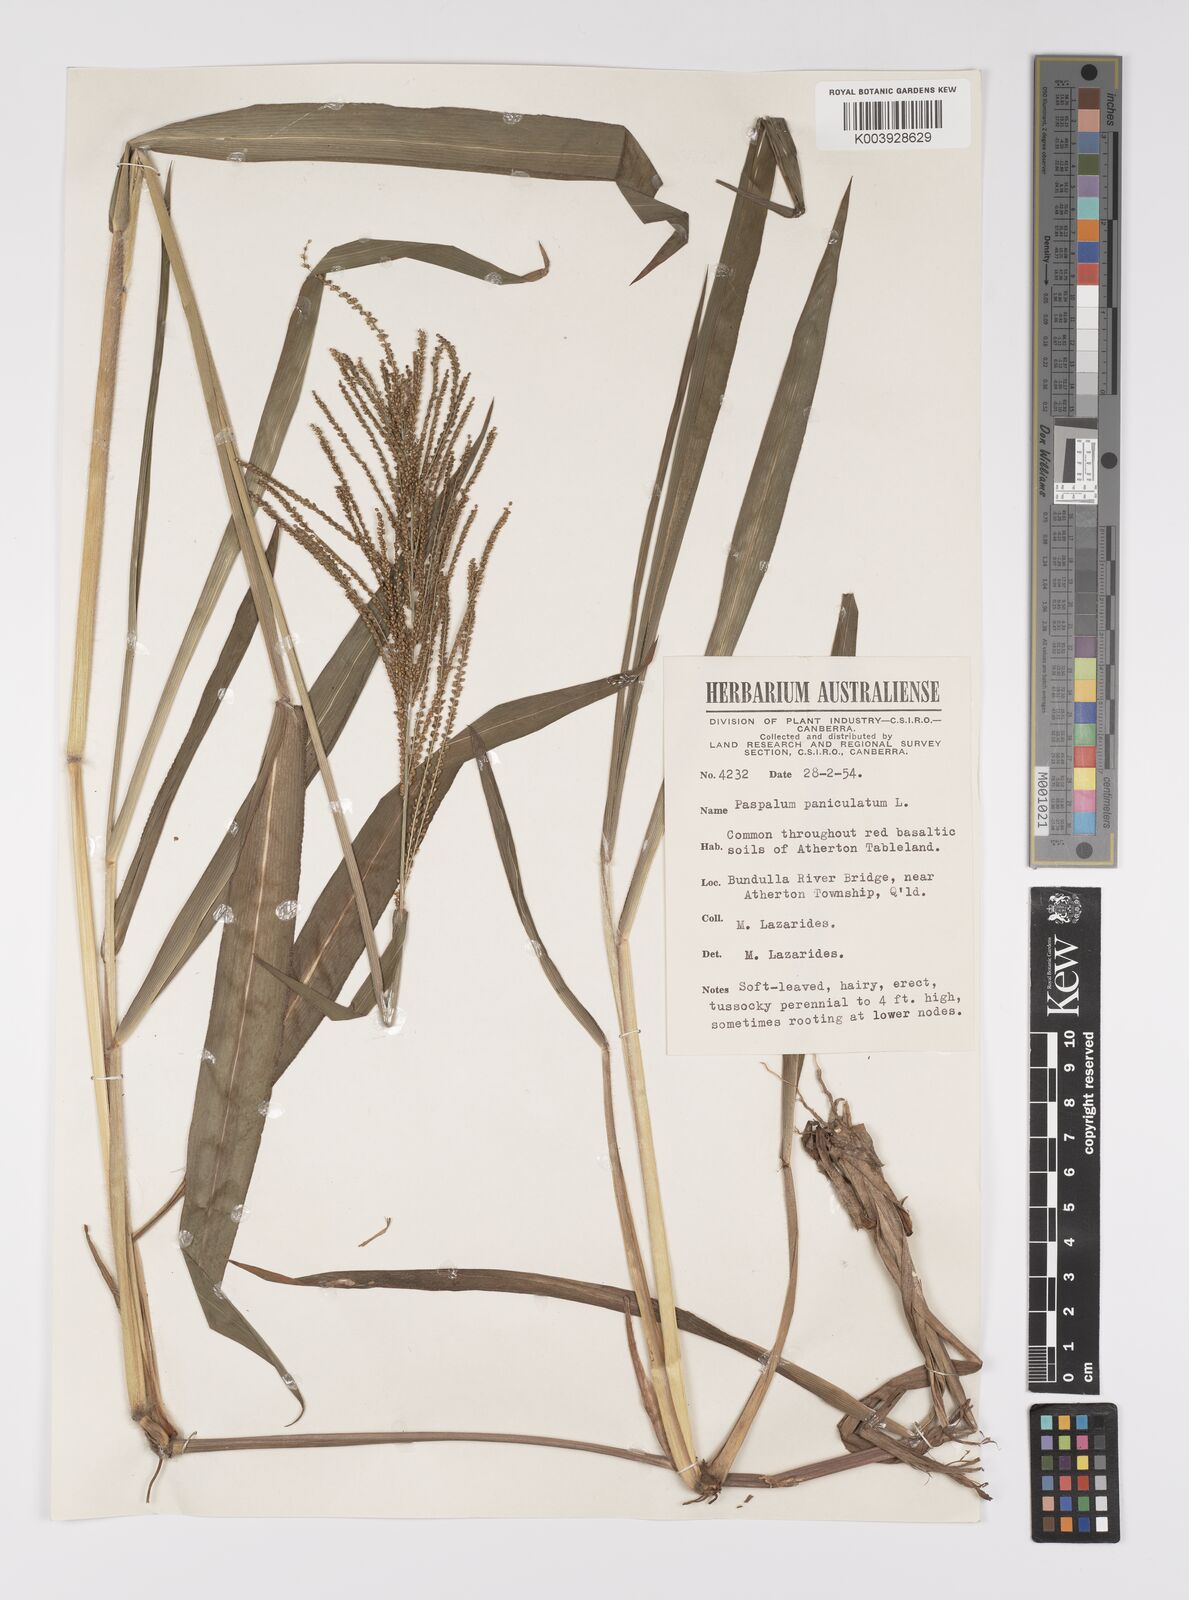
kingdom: Plantae
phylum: Tracheophyta
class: Liliopsida
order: Poales
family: Poaceae
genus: Paspalum
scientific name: Paspalum paniculatum
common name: Arrocillo
